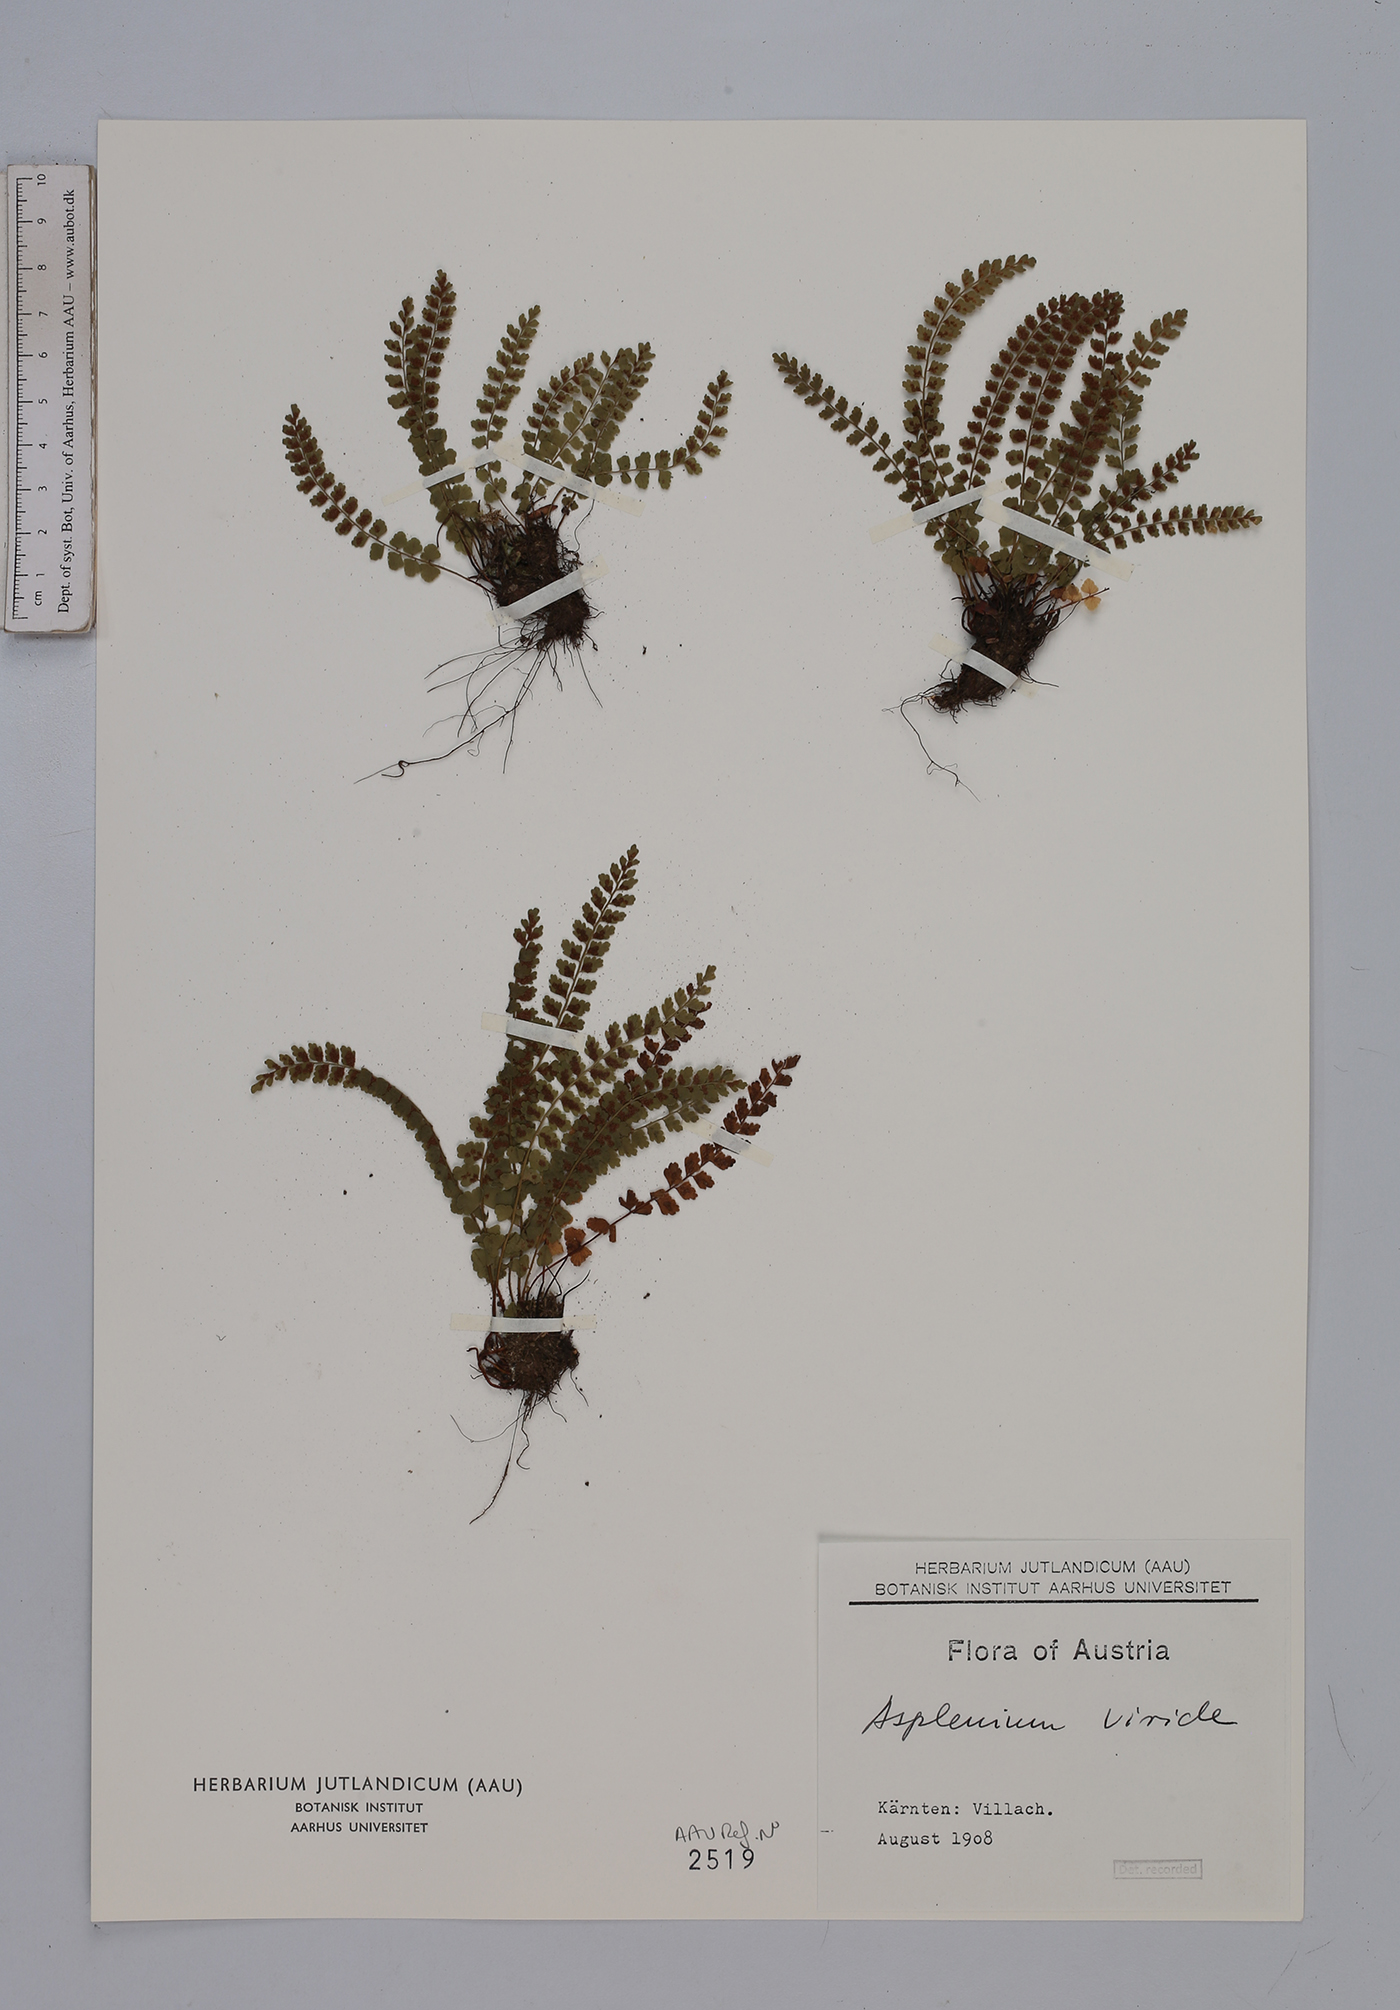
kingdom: Plantae
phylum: Tracheophyta
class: Polypodiopsida
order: Polypodiales
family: Aspleniaceae
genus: Asplenium
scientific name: Asplenium viride
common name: Green spleenwort
